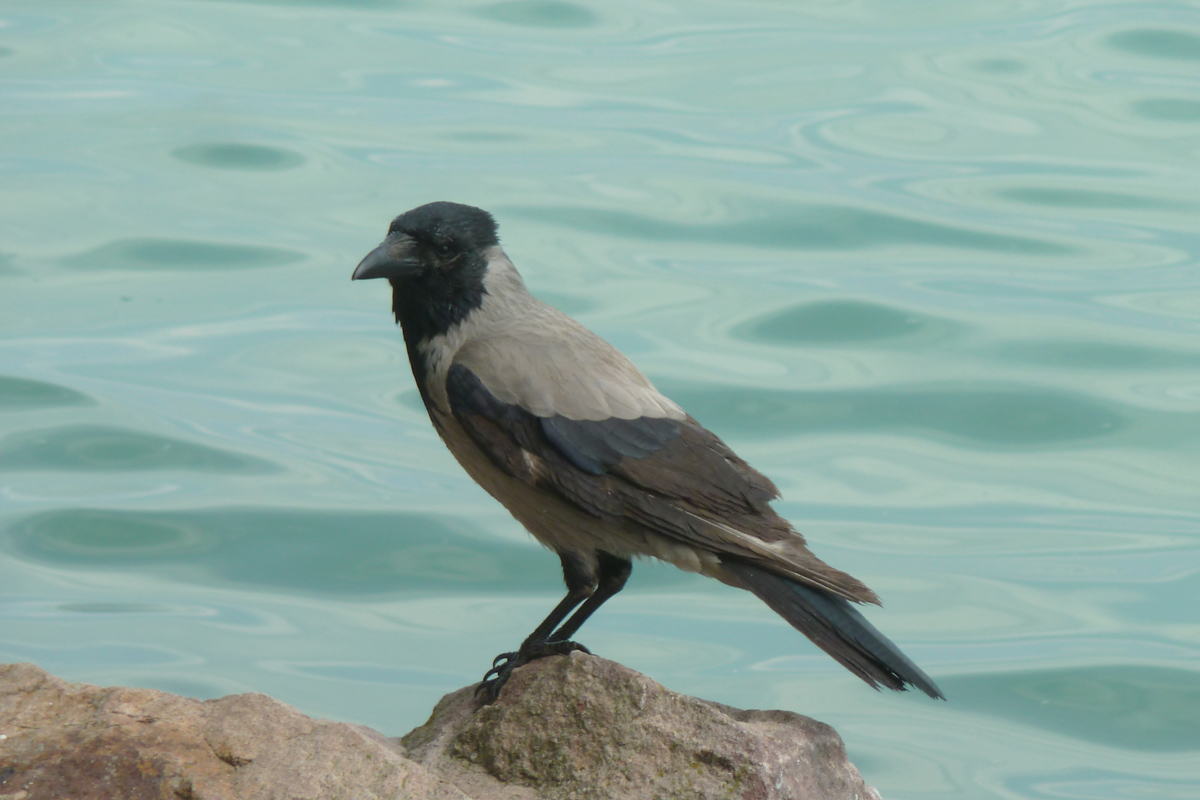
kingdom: Animalia
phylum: Chordata
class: Aves
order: Passeriformes
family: Corvidae
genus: Corvus
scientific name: Corvus cornix
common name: Hooded crow
